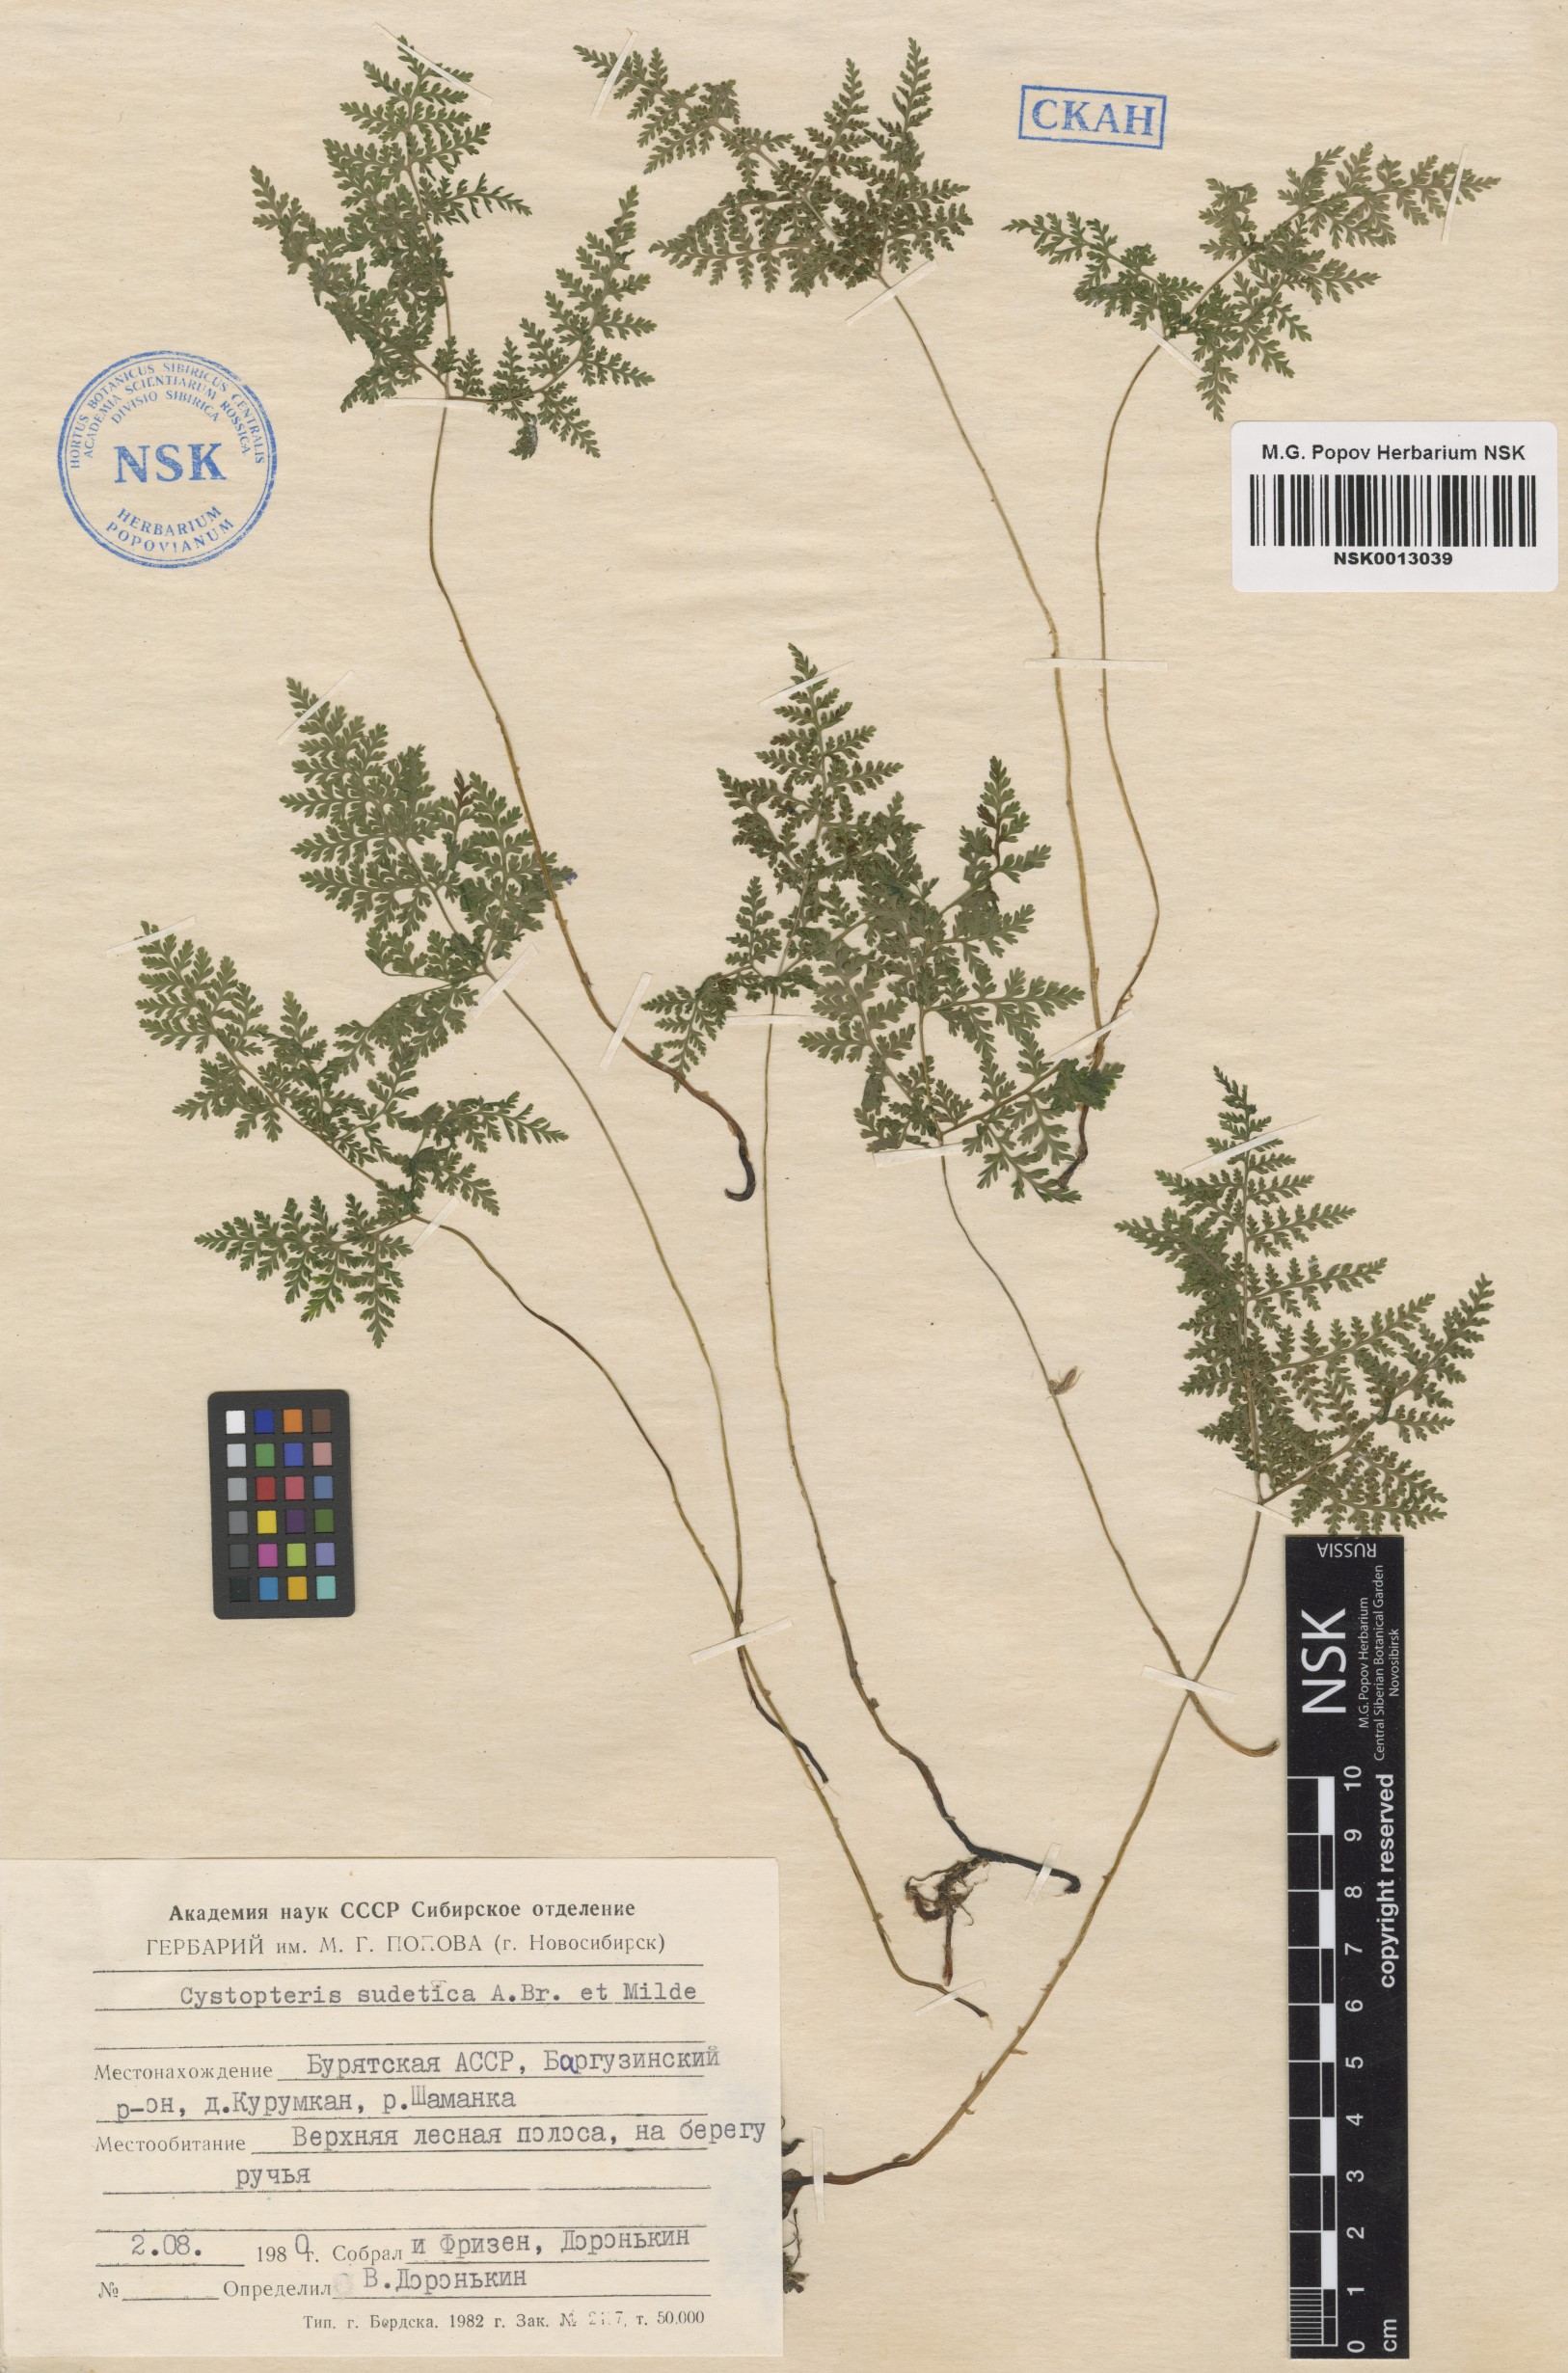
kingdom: Plantae
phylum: Tracheophyta
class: Polypodiopsida
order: Polypodiales
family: Cystopteridaceae
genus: Cystopteris
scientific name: Cystopteris sudetica
